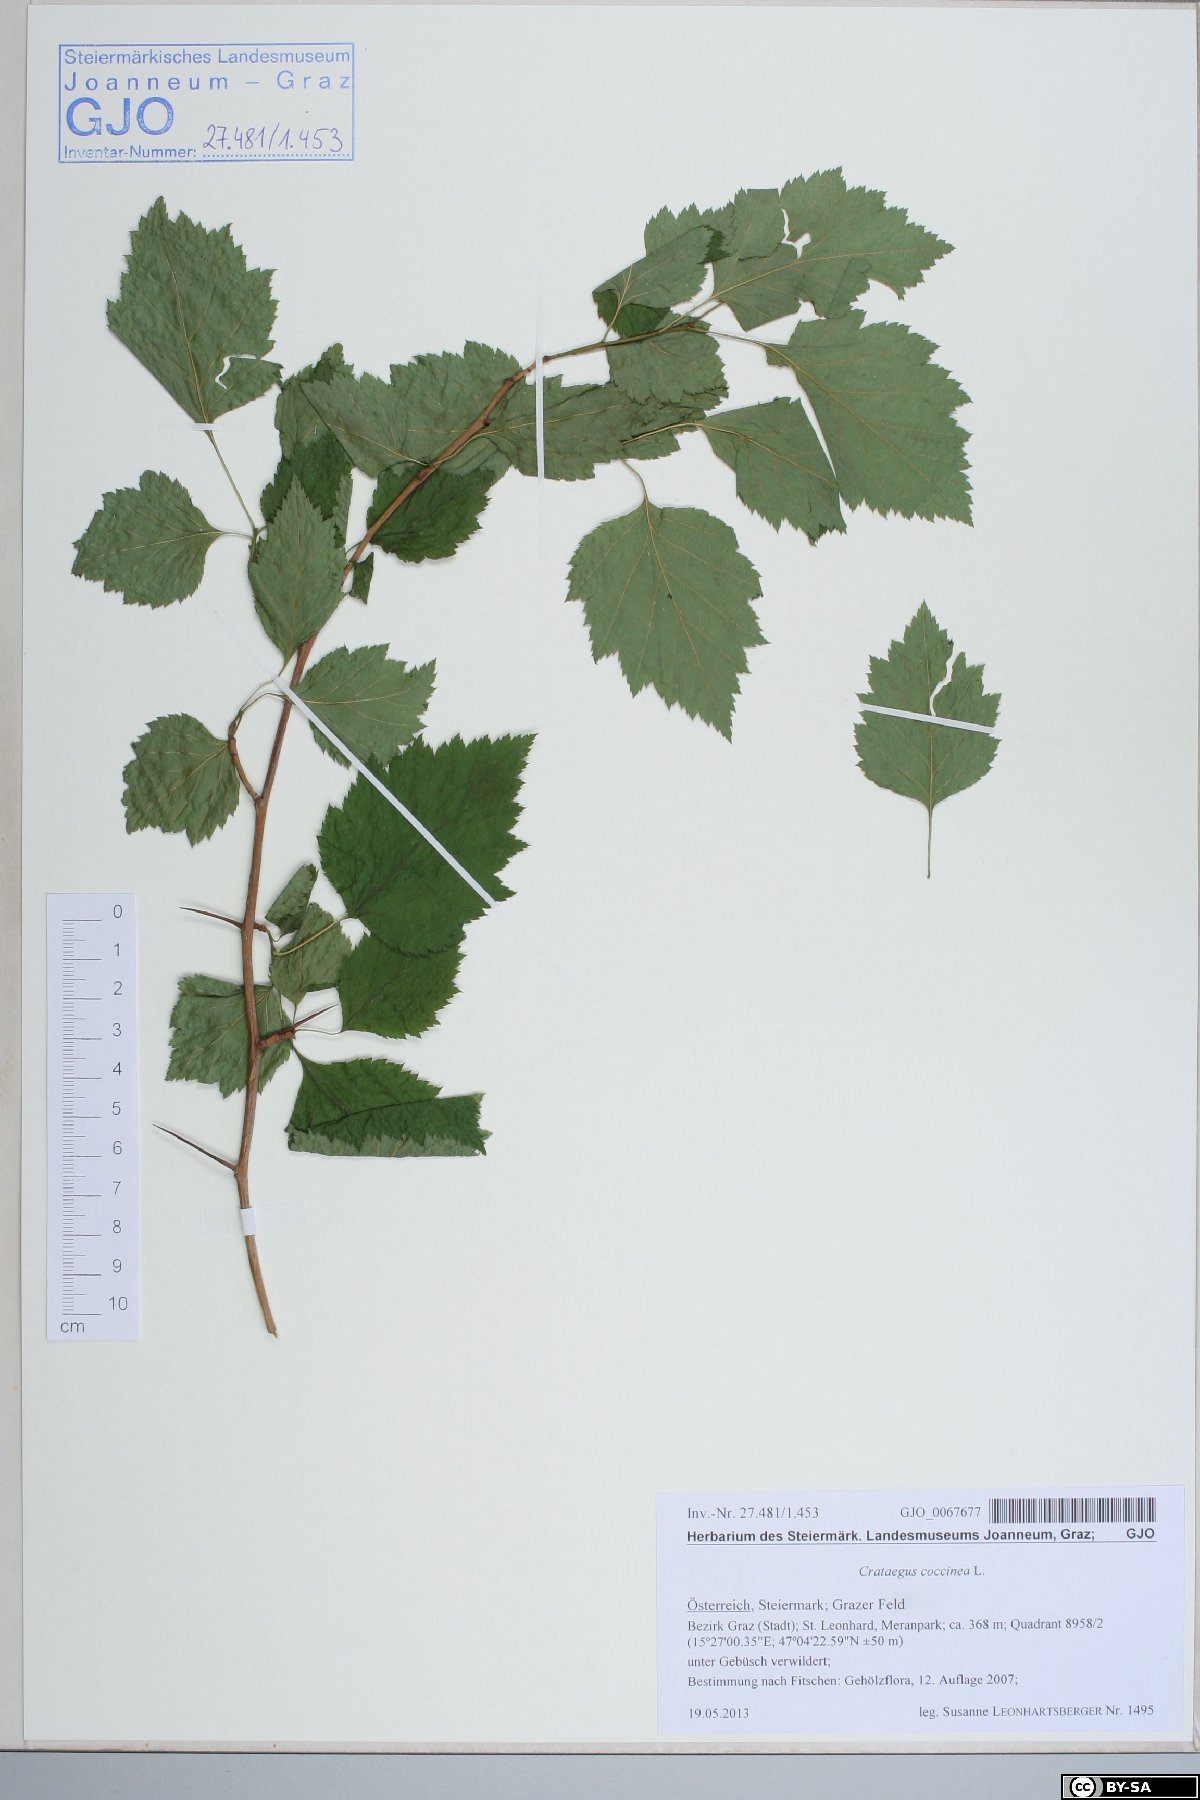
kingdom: Plantae
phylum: Tracheophyta
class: Magnoliopsida
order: Rosales
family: Rosaceae
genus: Crataegus
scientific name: Crataegus coccinea
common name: Scarlet hawthorn
